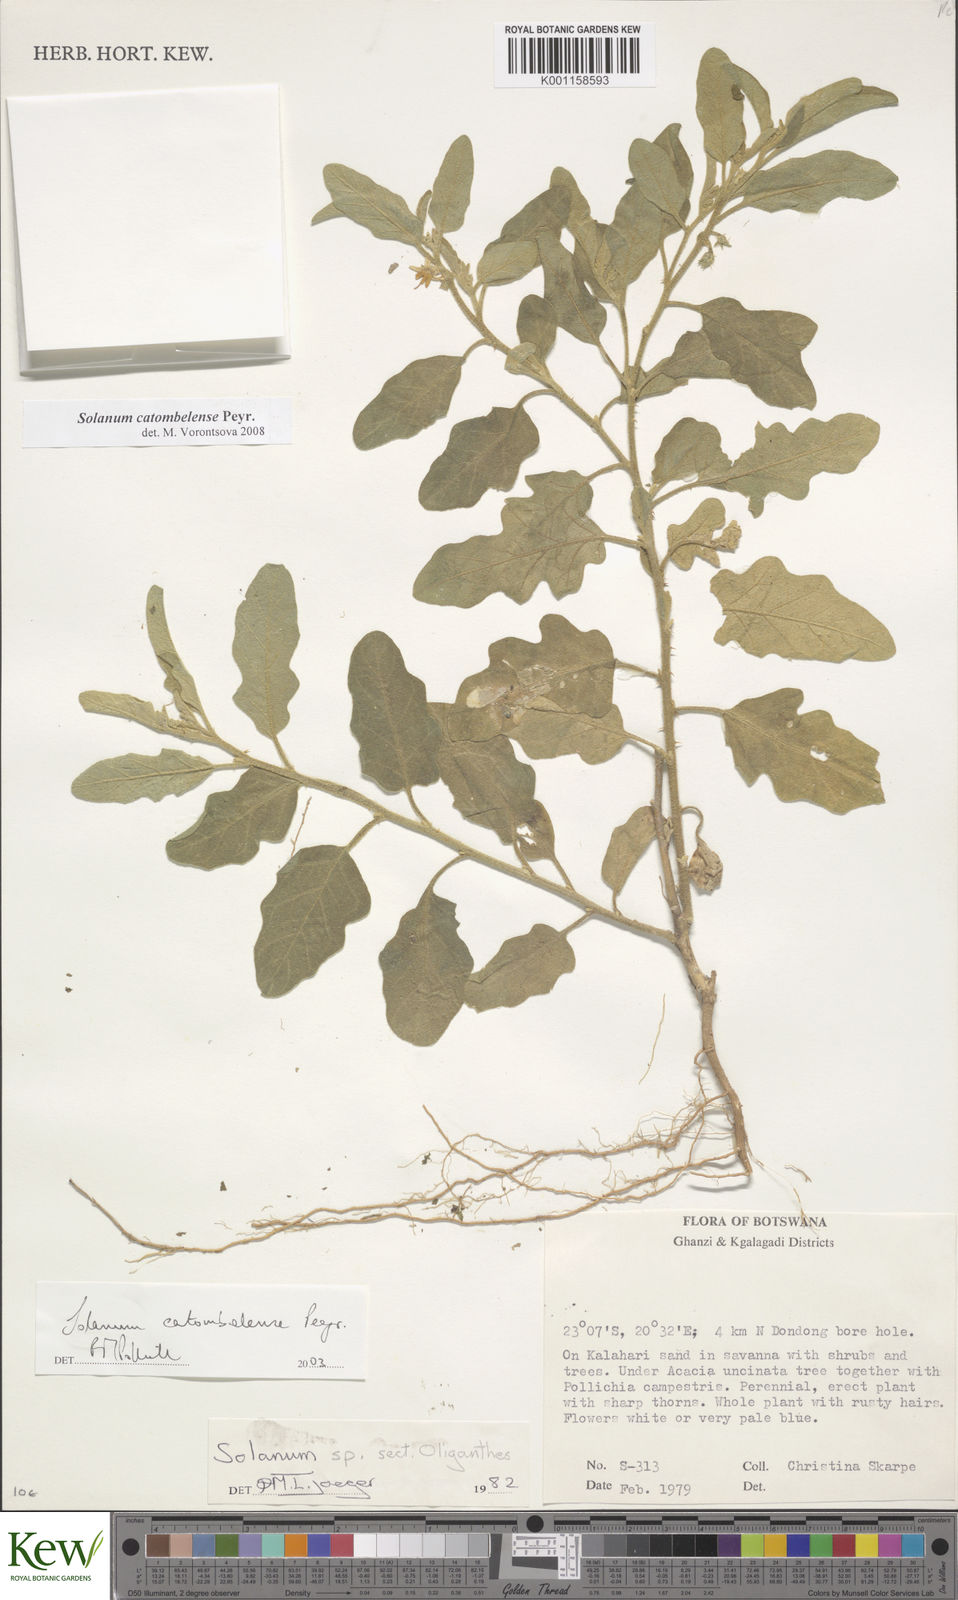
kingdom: Plantae
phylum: Tracheophyta
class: Magnoliopsida
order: Solanales
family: Solanaceae
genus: Solanum
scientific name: Solanum catombelense
